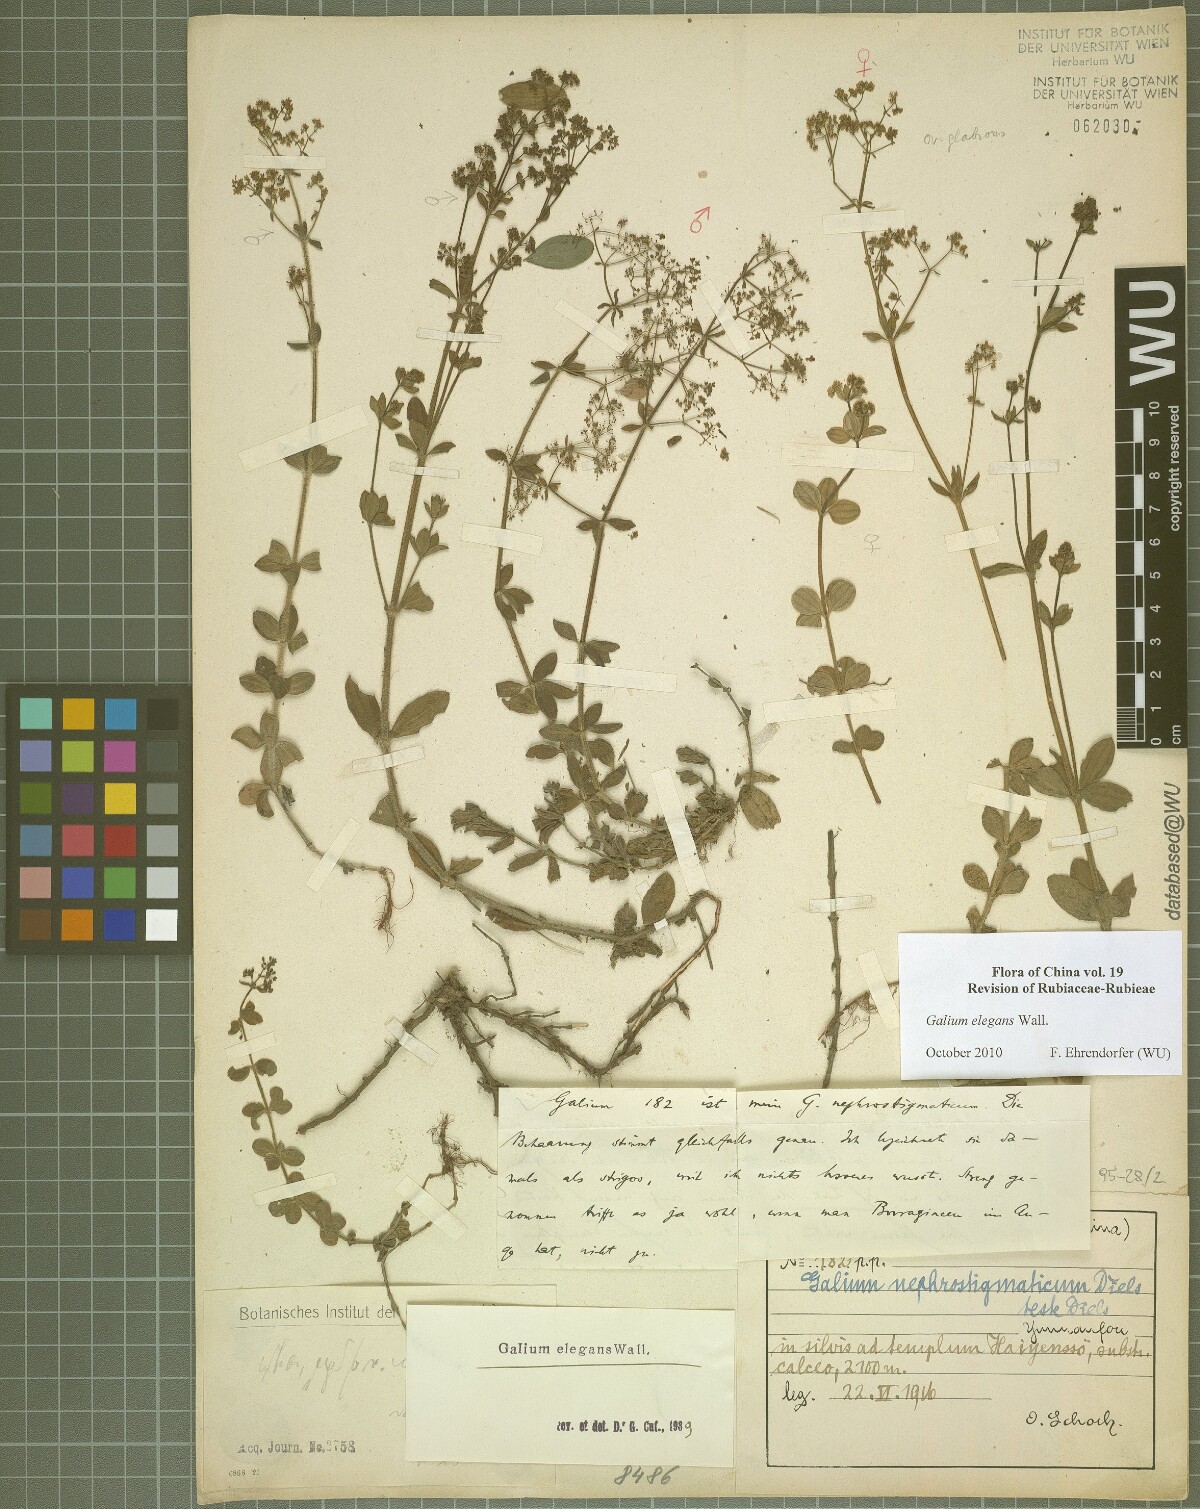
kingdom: Plantae
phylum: Tracheophyta
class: Magnoliopsida
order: Gentianales
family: Rubiaceae
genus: Galium
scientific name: Galium elegans
